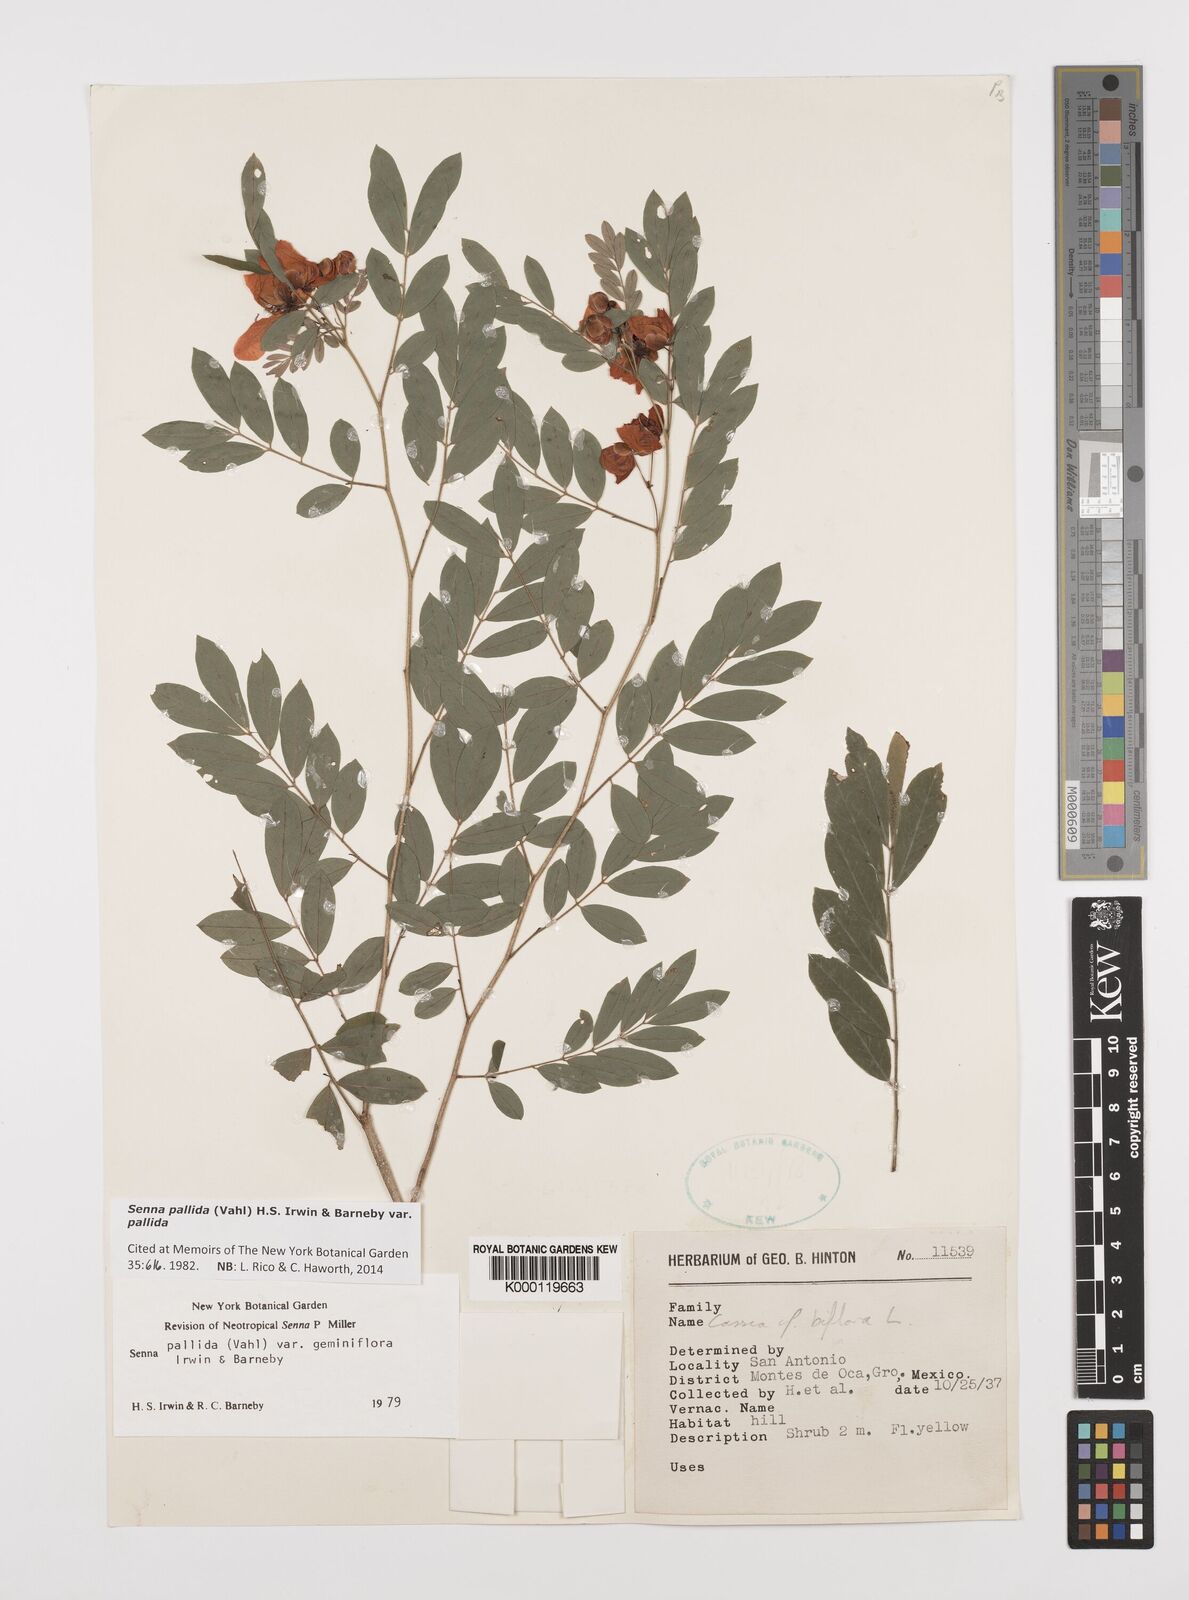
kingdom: Plantae
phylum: Tracheophyta
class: Magnoliopsida
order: Fabales
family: Fabaceae
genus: Senna
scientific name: Senna pallida
